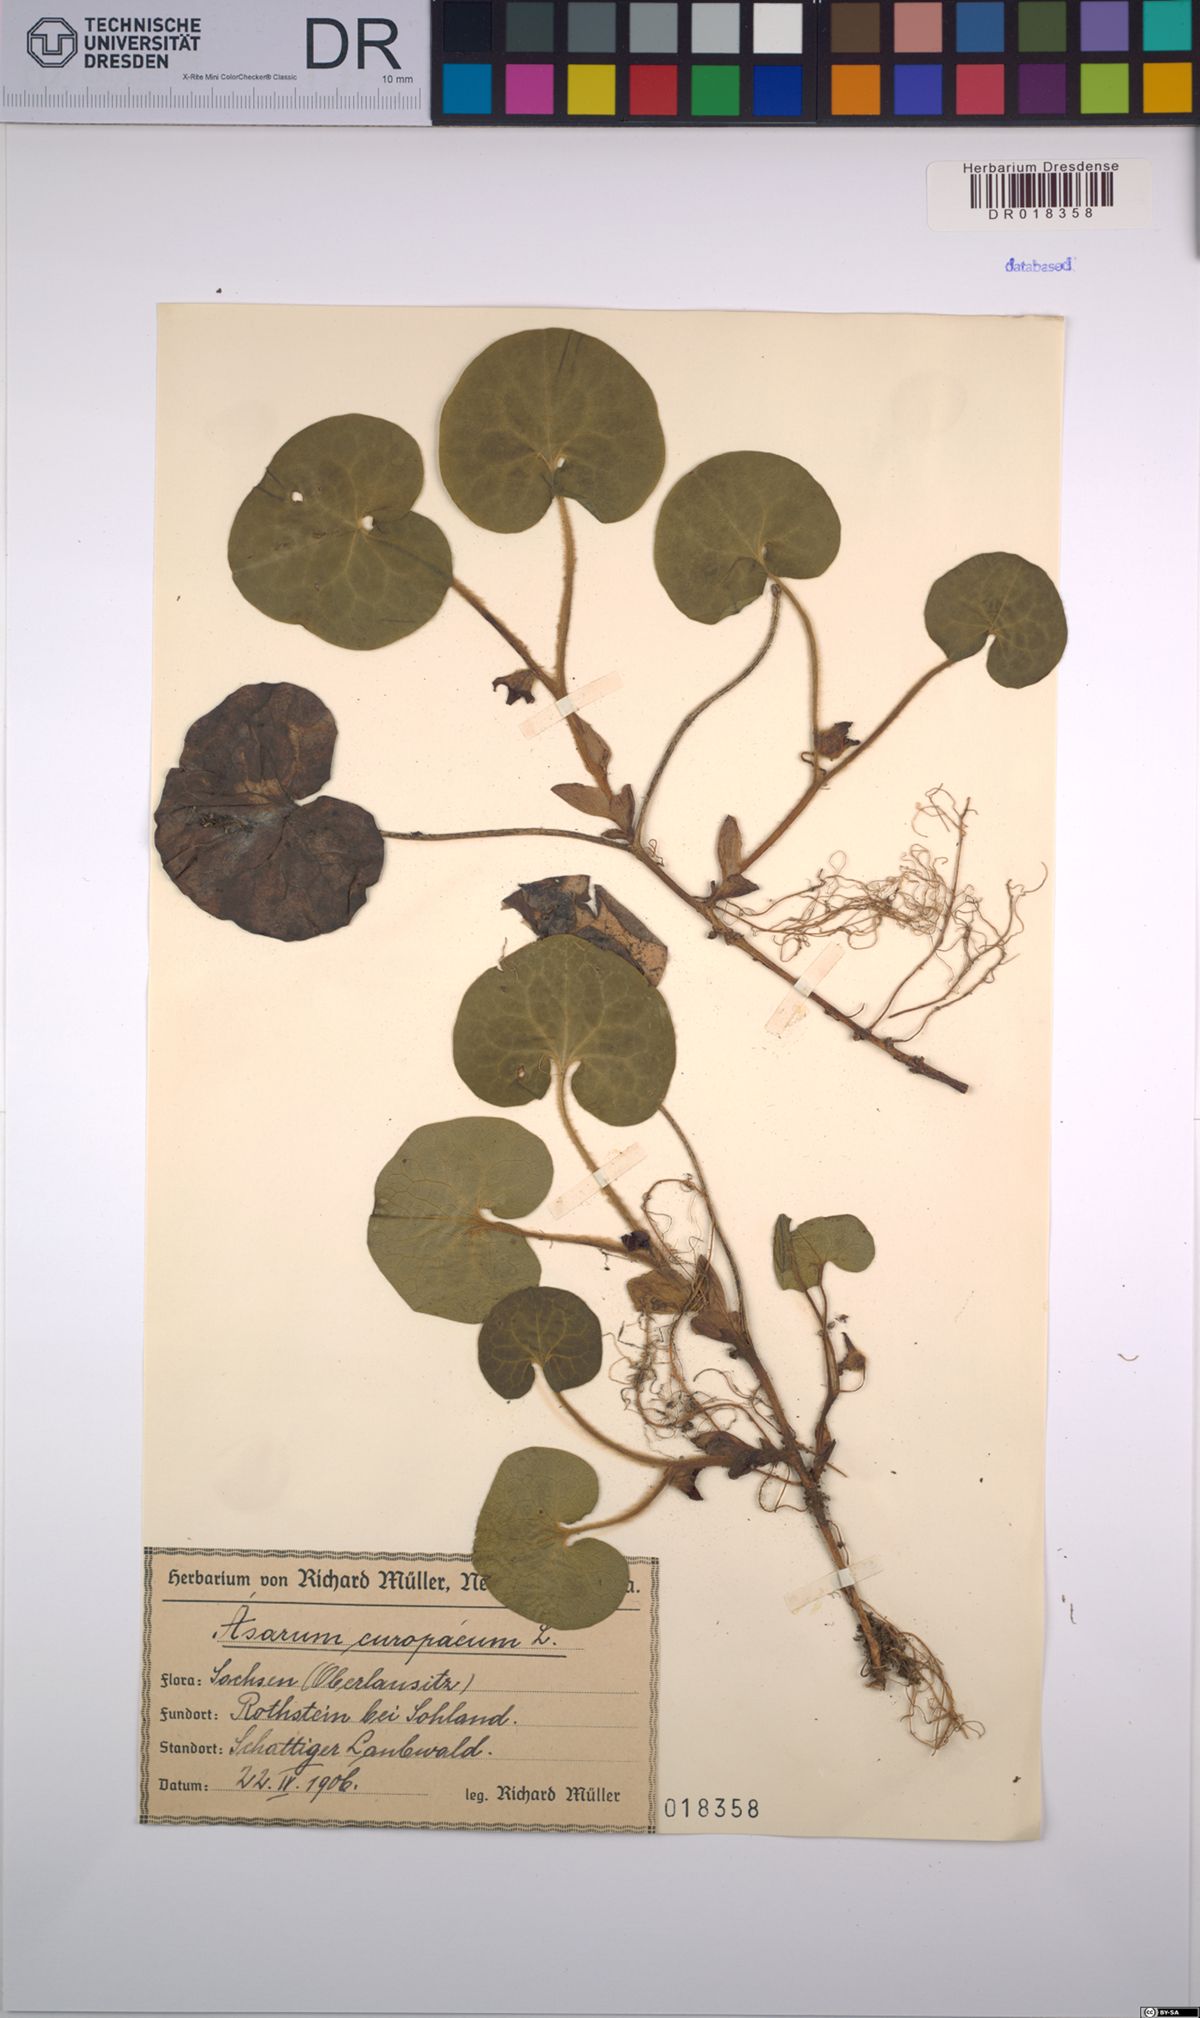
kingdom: Plantae
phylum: Tracheophyta
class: Magnoliopsida
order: Piperales
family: Aristolochiaceae
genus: Asarum
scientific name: Asarum europaeum
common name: Asarabacca
